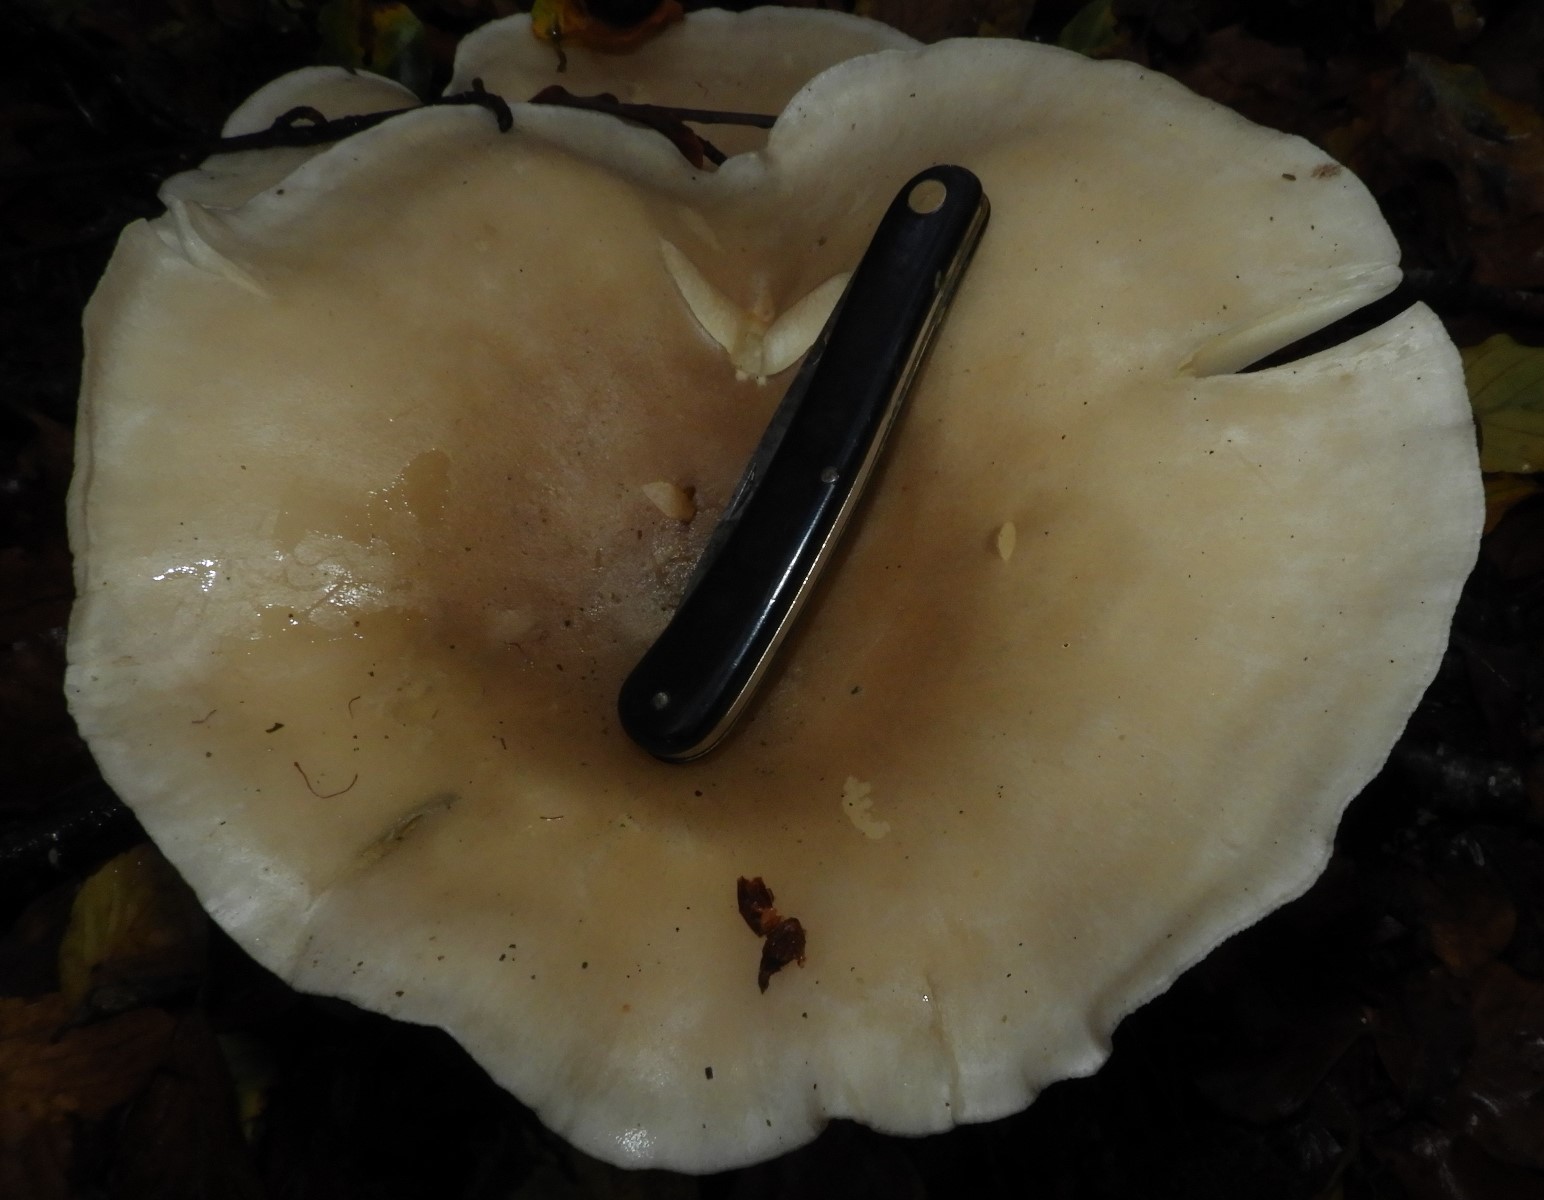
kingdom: Fungi
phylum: Basidiomycota
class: Agaricomycetes
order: Agaricales
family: Tricholomataceae
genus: Clitocybe
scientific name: Clitocybe nebularis
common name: tåge-tragthat
